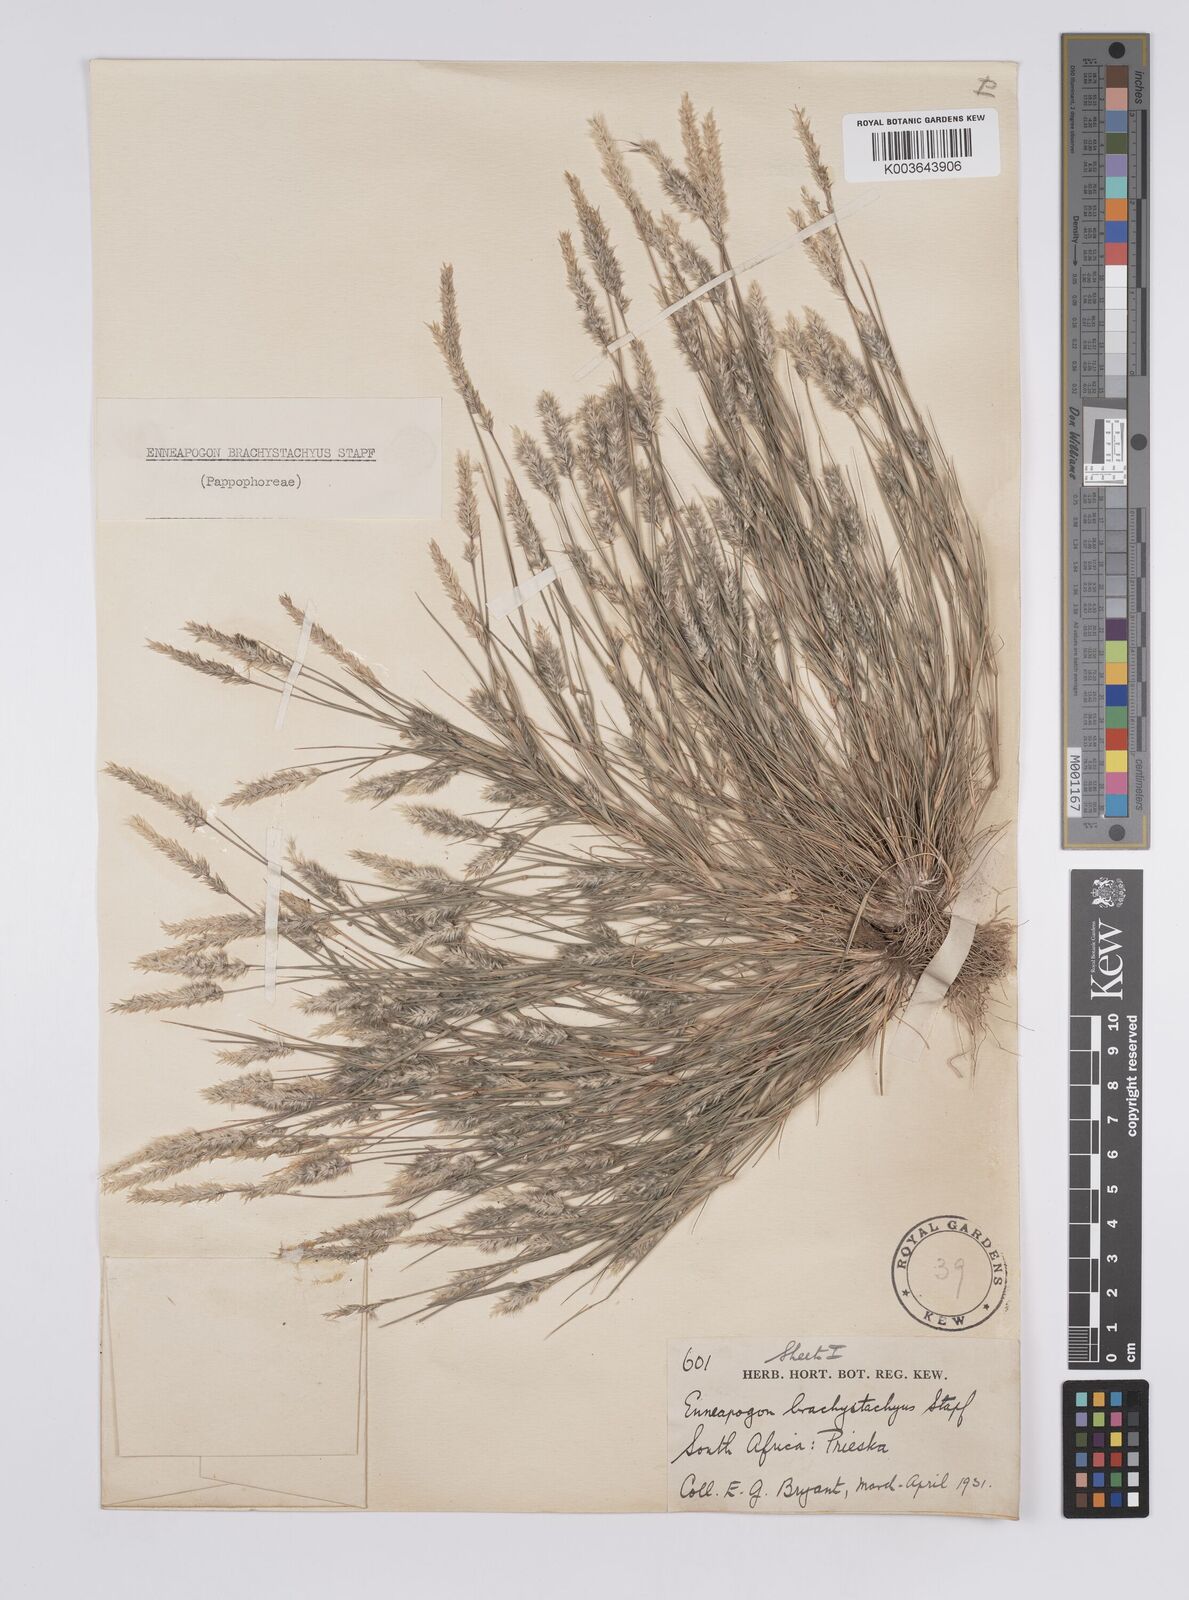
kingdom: Plantae
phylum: Tracheophyta
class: Liliopsida
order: Poales
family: Poaceae
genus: Enneapogon
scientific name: Enneapogon desvauxii
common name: Feather pappus grass
